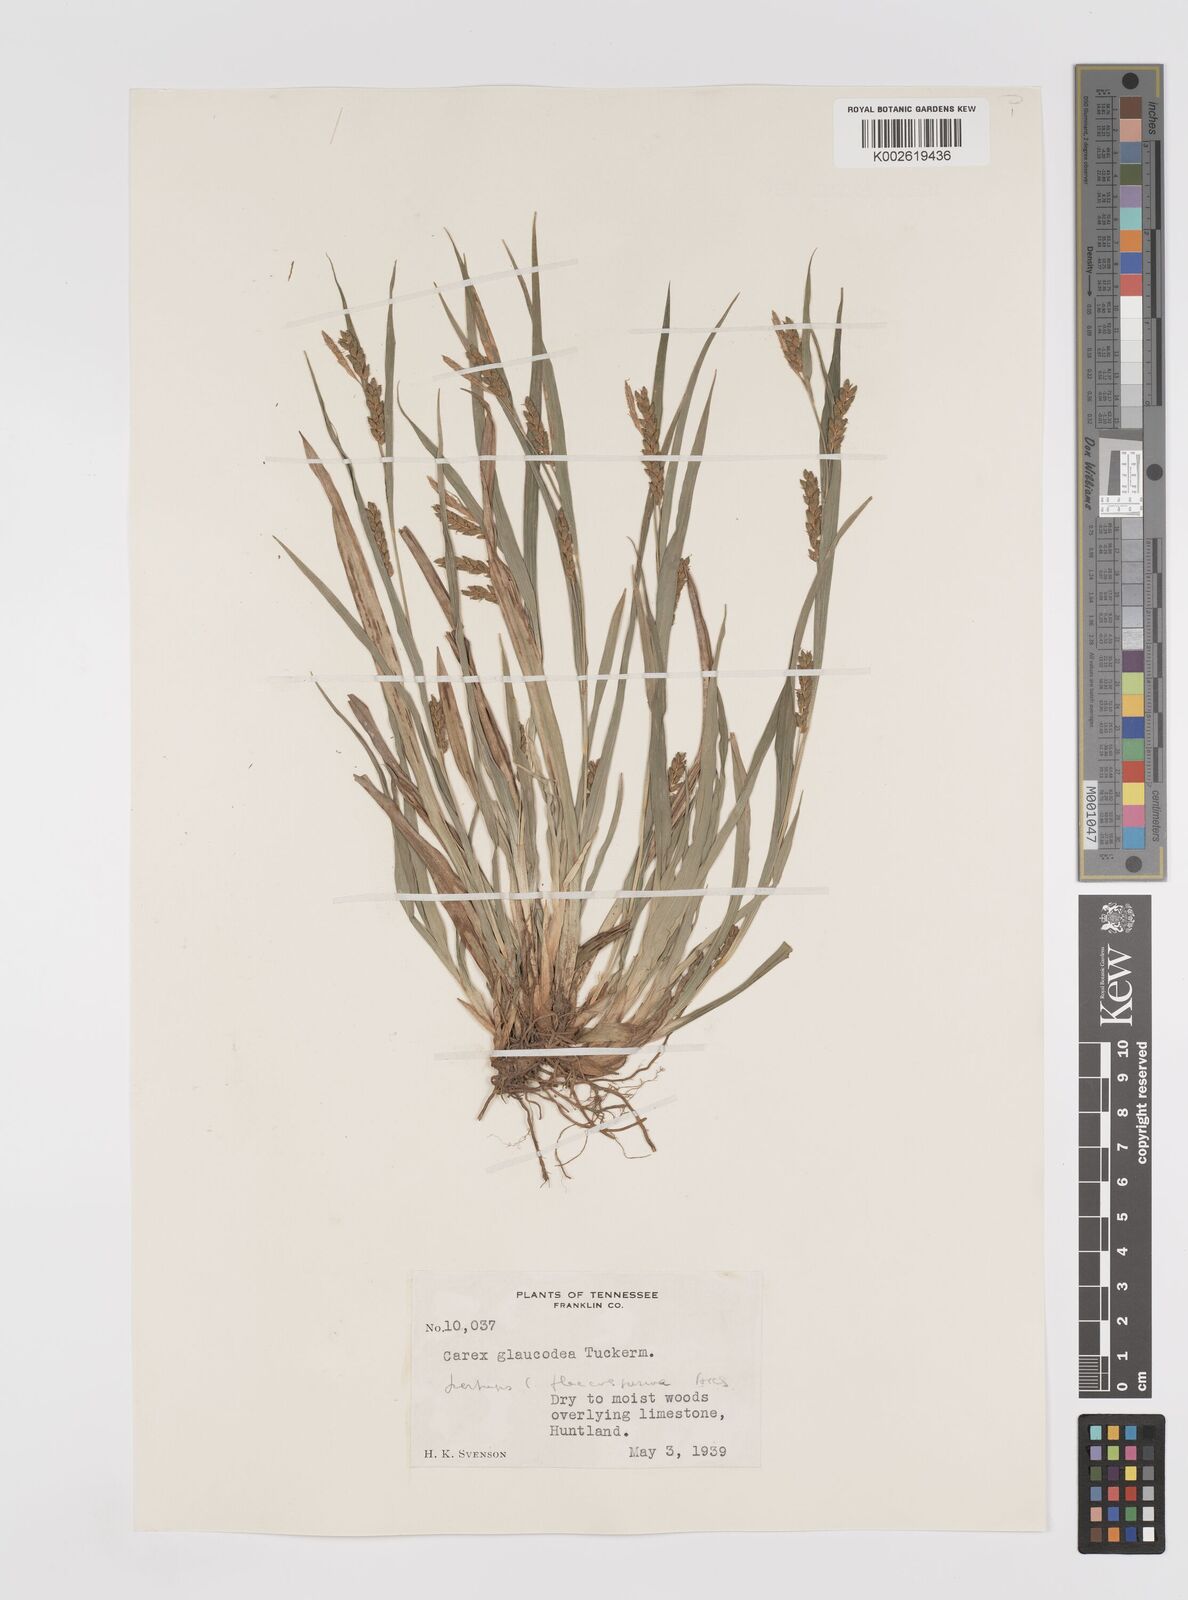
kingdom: Plantae
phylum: Tracheophyta
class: Liliopsida
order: Poales
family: Cyperaceae
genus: Carex
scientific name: Carex glaucodea
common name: Blue sedge
